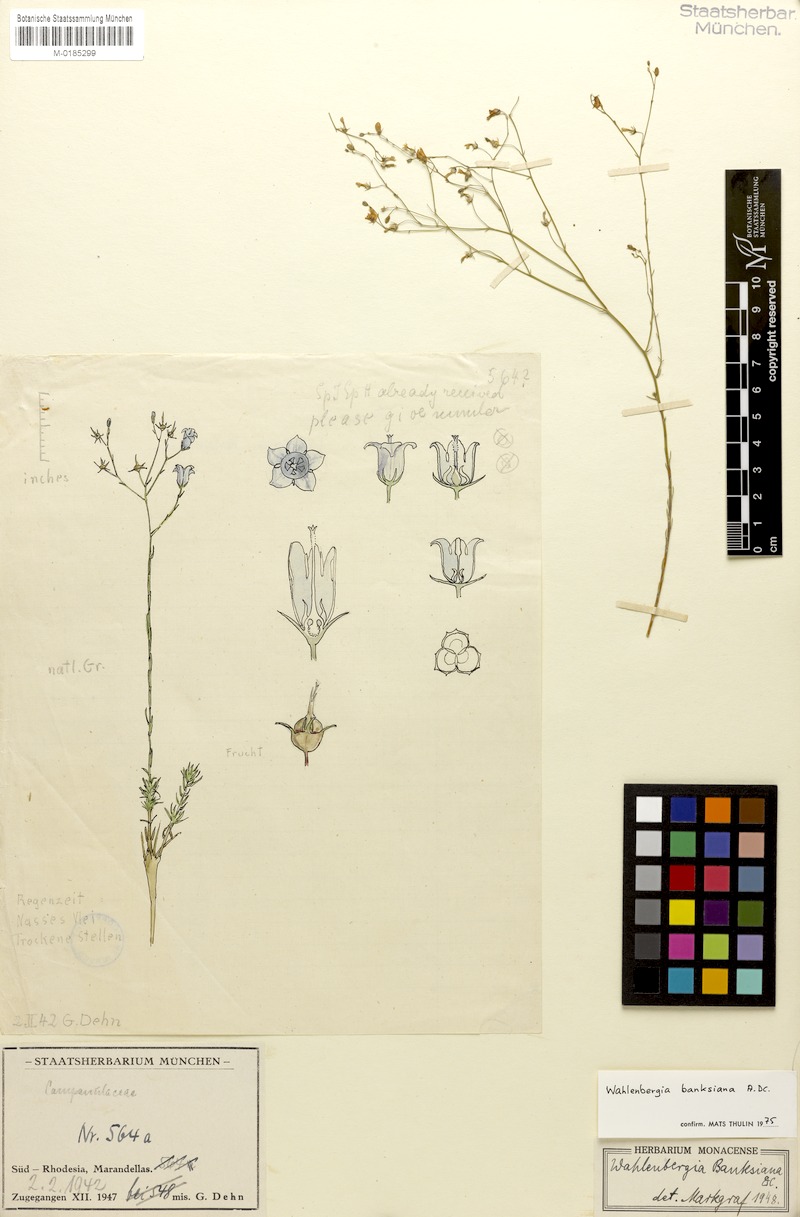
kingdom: Plantae
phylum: Tracheophyta
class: Magnoliopsida
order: Asterales
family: Campanulaceae
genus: Wahlenbergia
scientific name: Wahlenbergia banksiana
